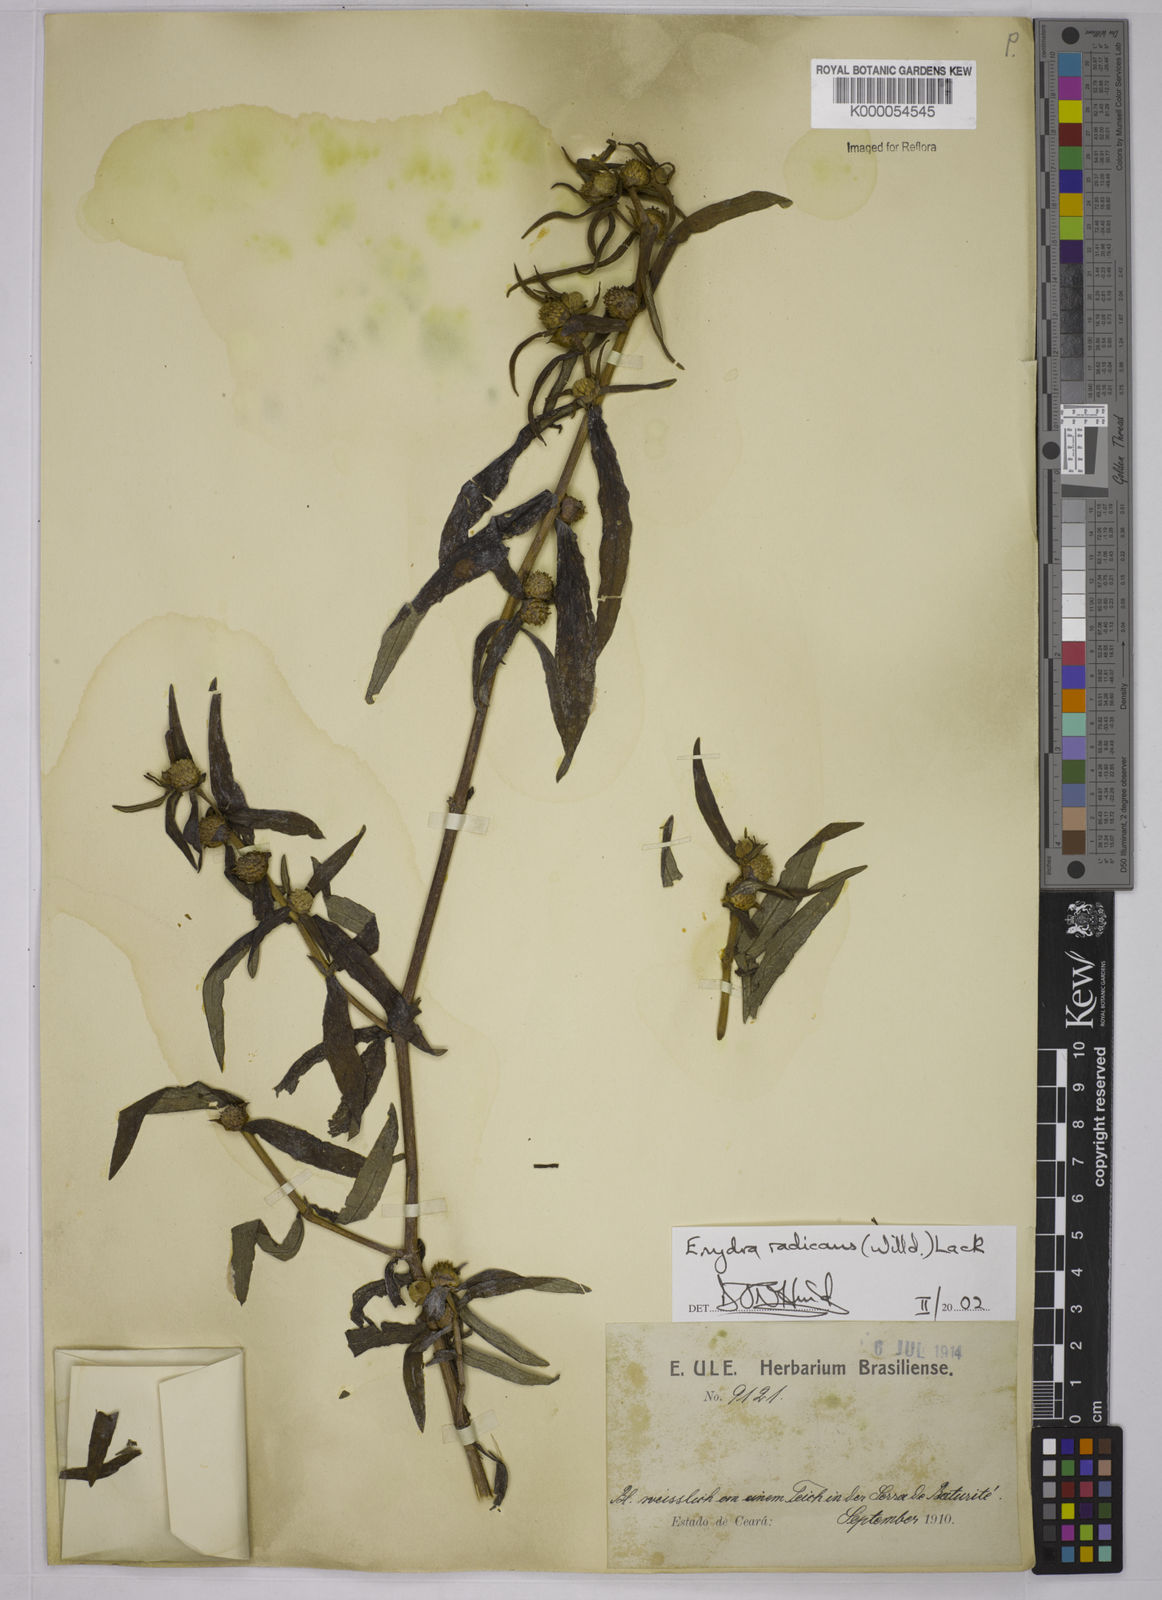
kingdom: Plantae
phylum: Tracheophyta
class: Magnoliopsida
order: Asterales
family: Asteraceae
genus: Enydra
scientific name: Enydra radicans
